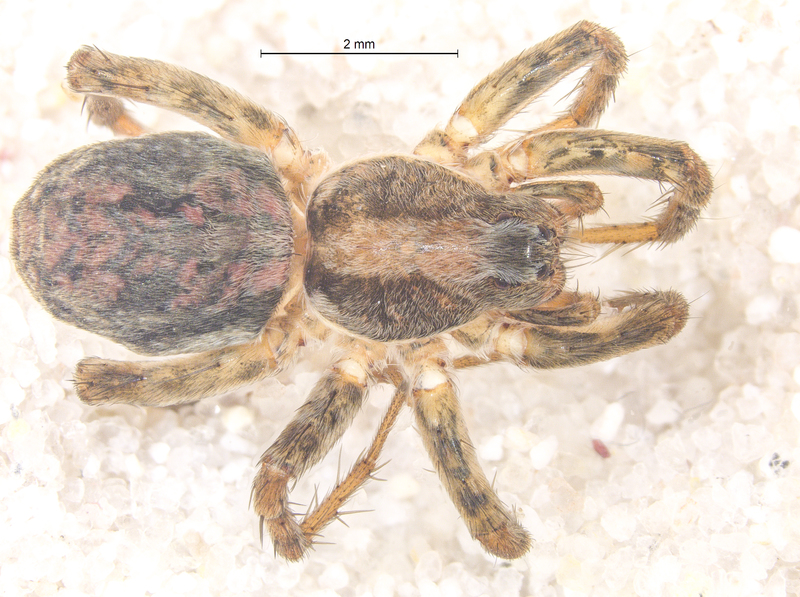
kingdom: Animalia
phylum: Arthropoda
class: Arachnida
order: Araneae
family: Lycosidae
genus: Xerolycosa
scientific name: Xerolycosa miniata
